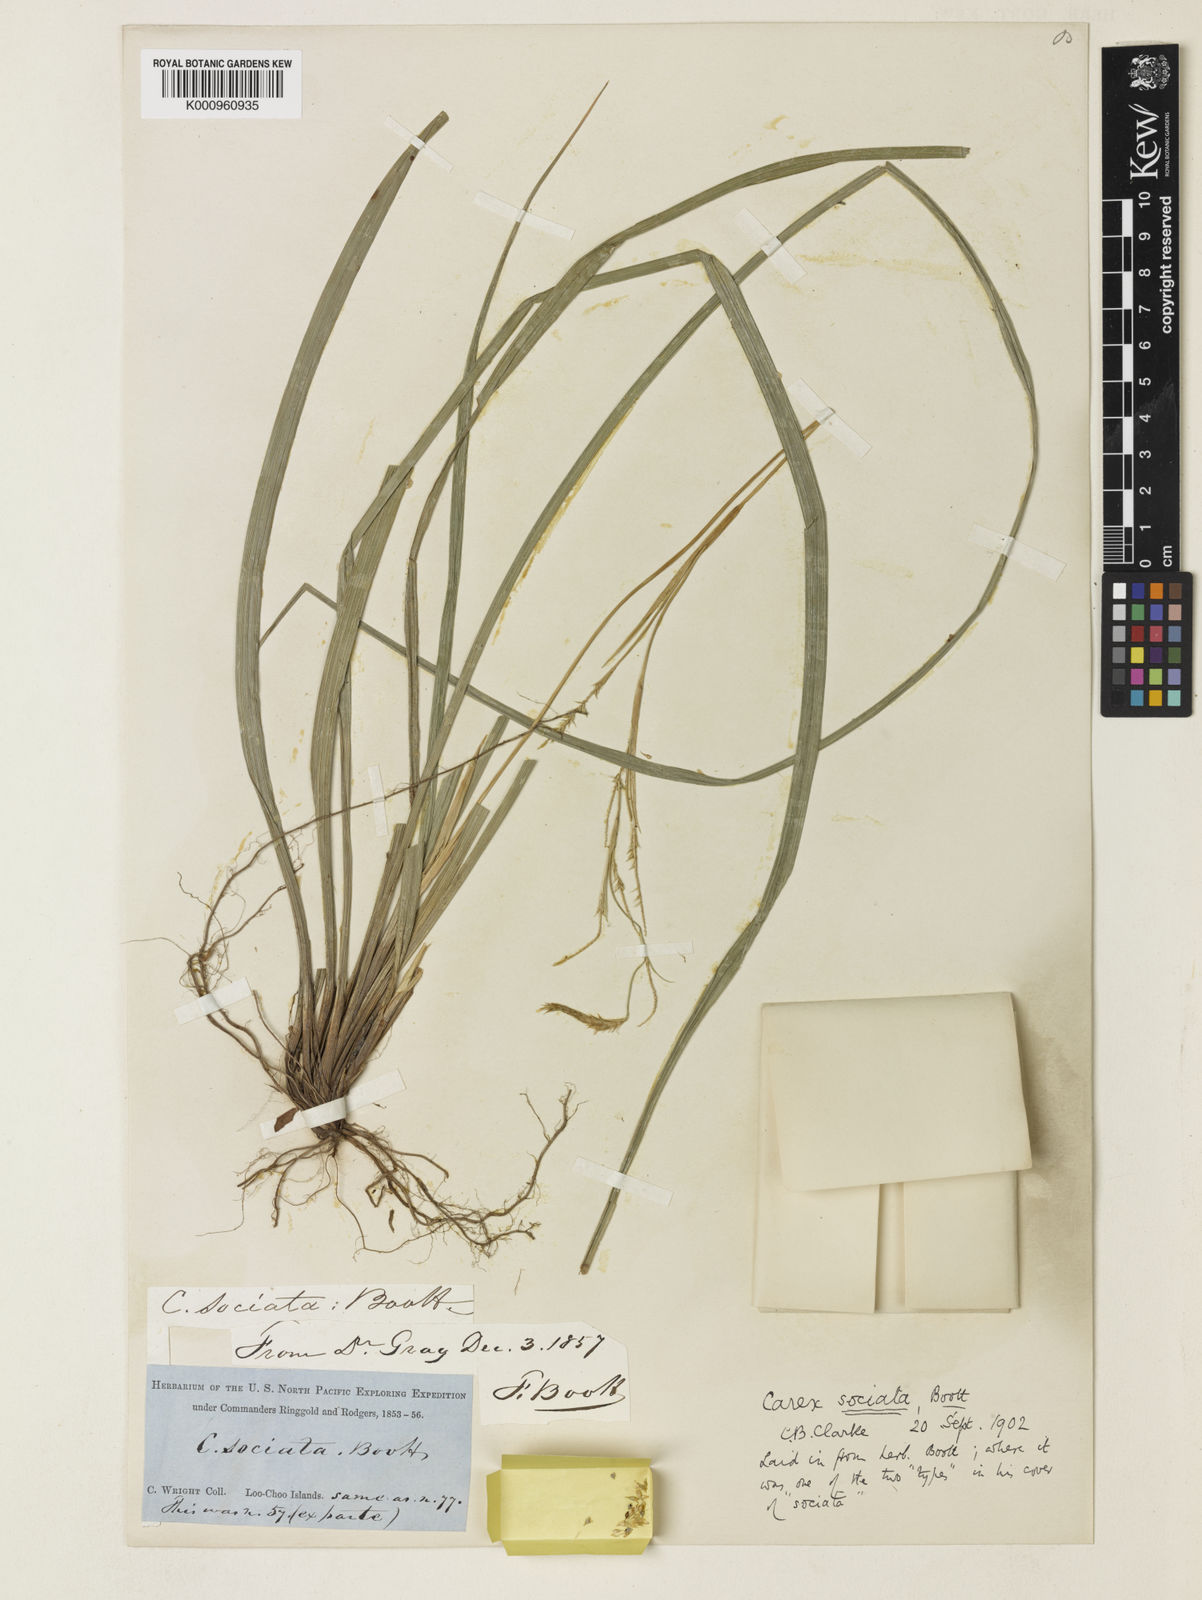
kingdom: Plantae
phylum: Tracheophyta
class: Liliopsida
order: Poales
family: Cyperaceae
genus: Carex
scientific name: Carex chinensis
